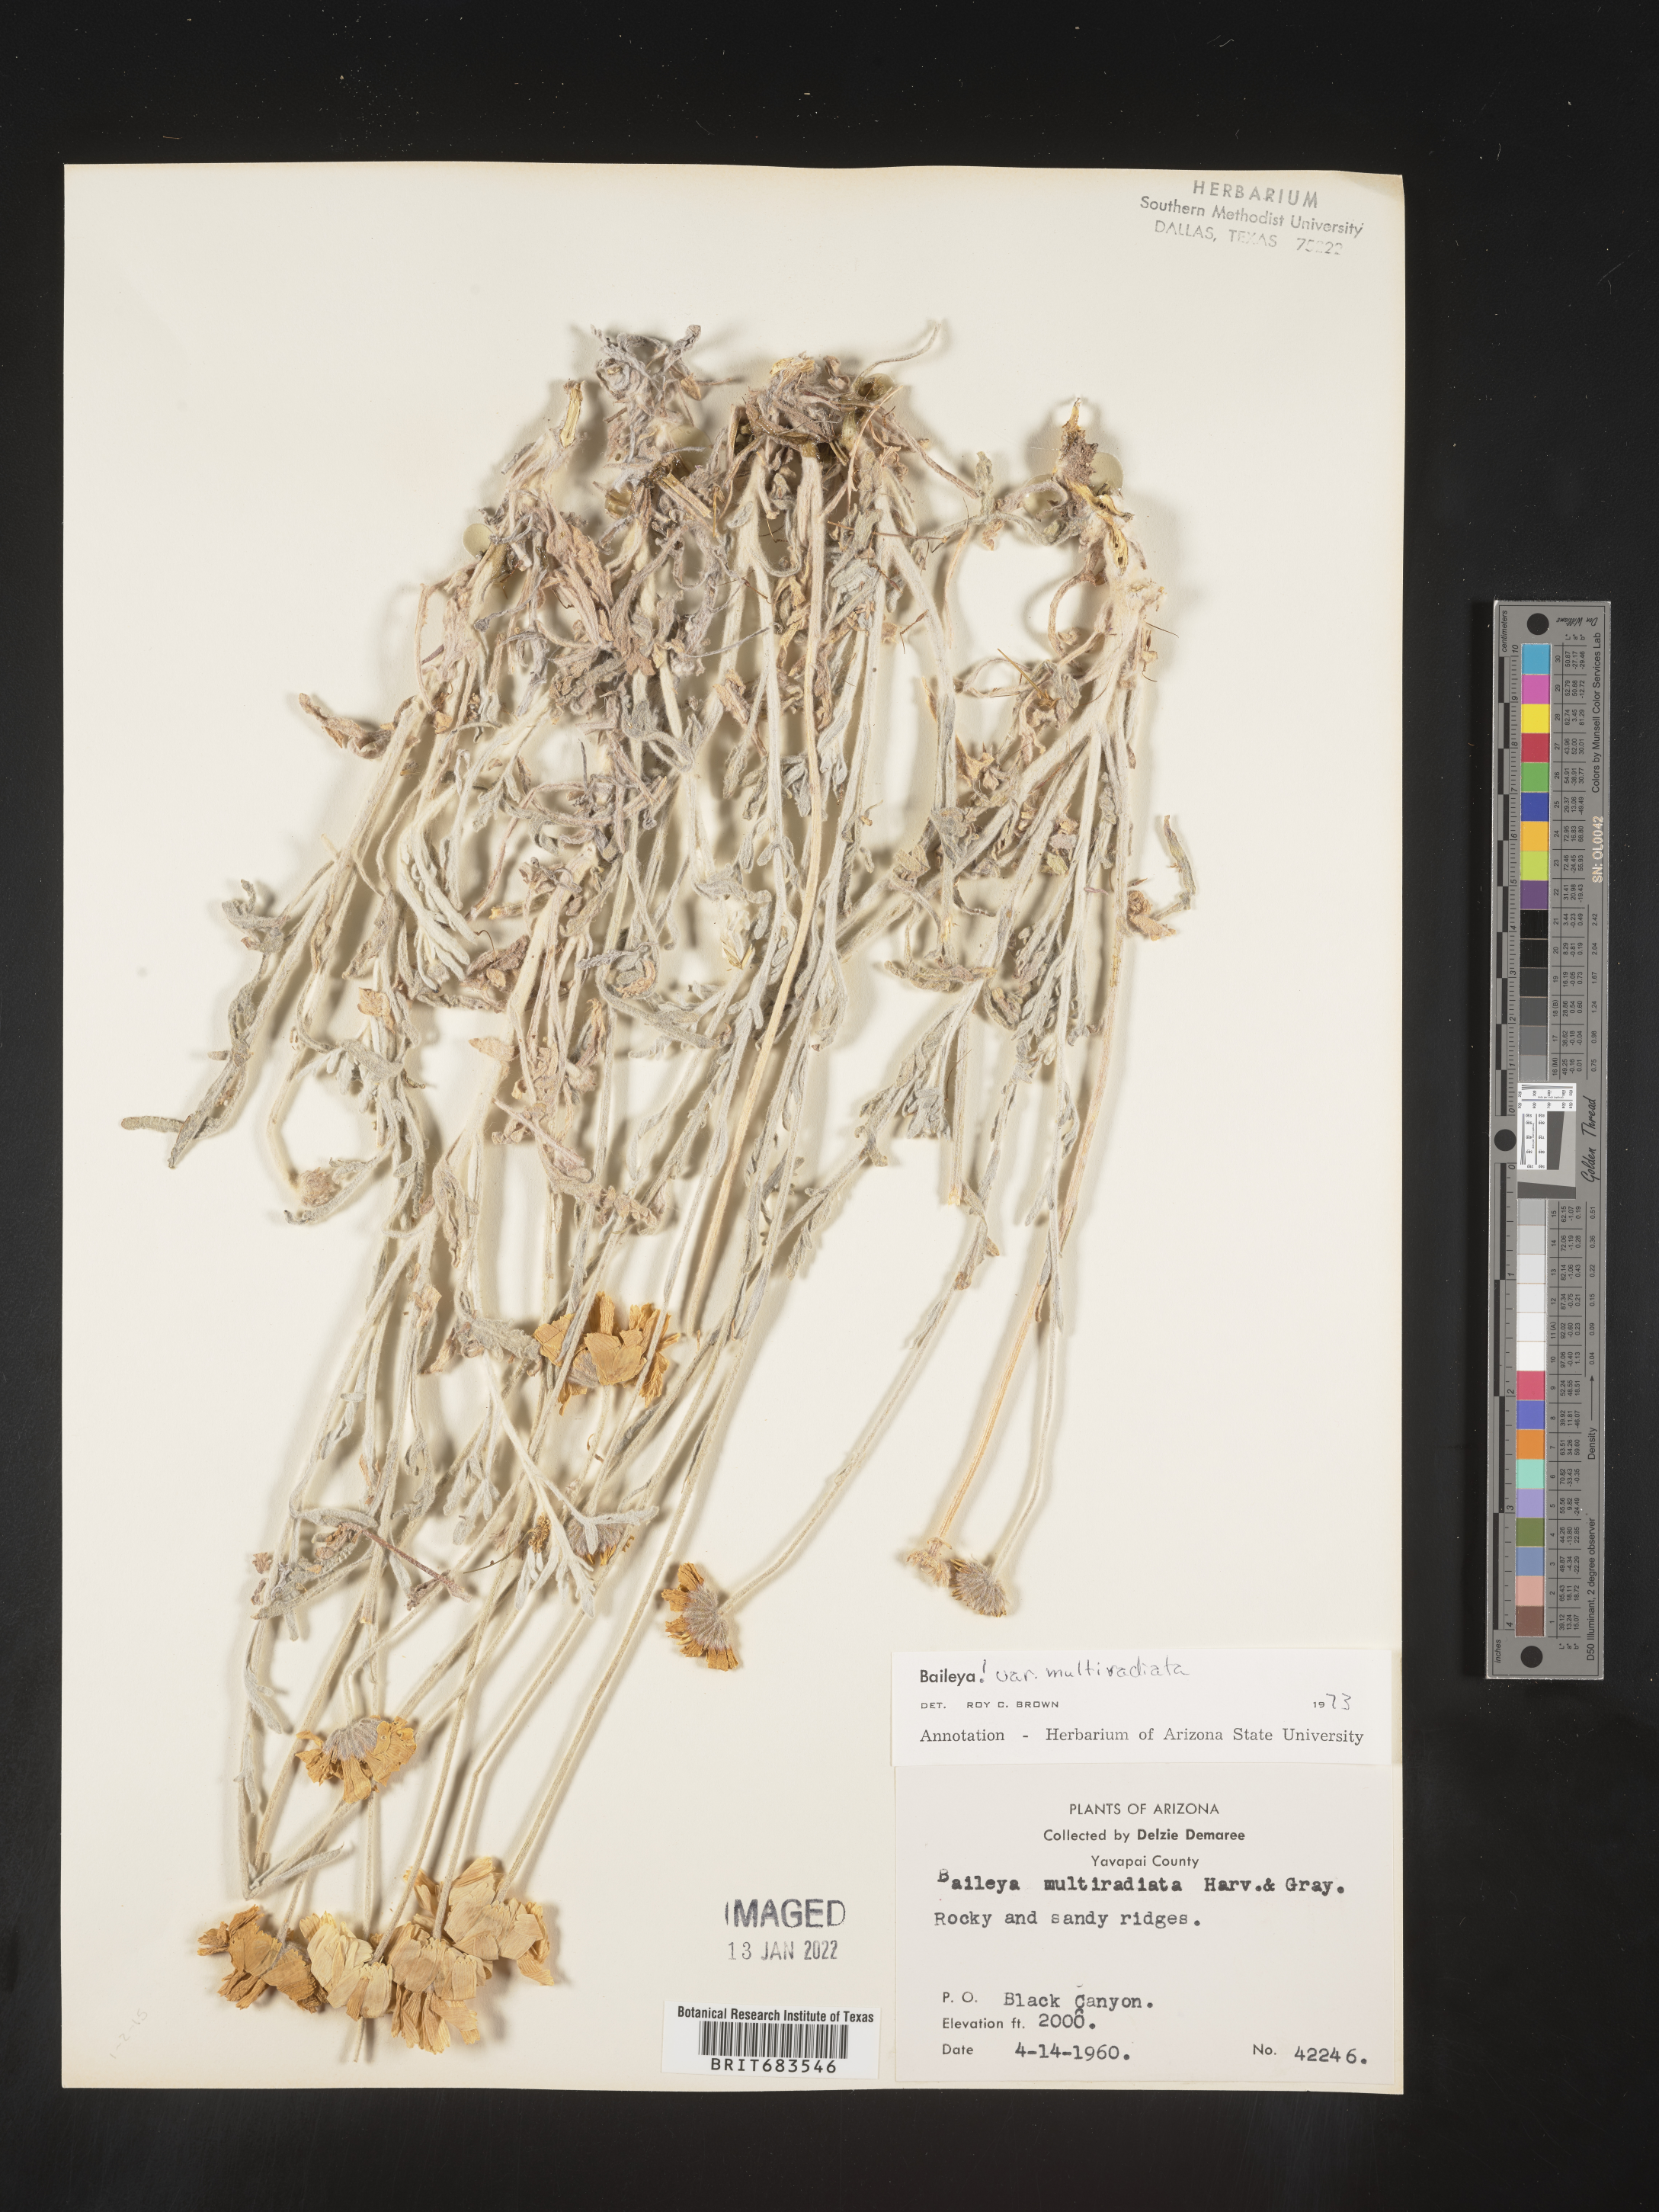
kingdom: Plantae
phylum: Tracheophyta
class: Magnoliopsida
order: Asterales
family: Asteraceae
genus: Baileya
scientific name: Baileya multiradiata
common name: Desert-marigold
